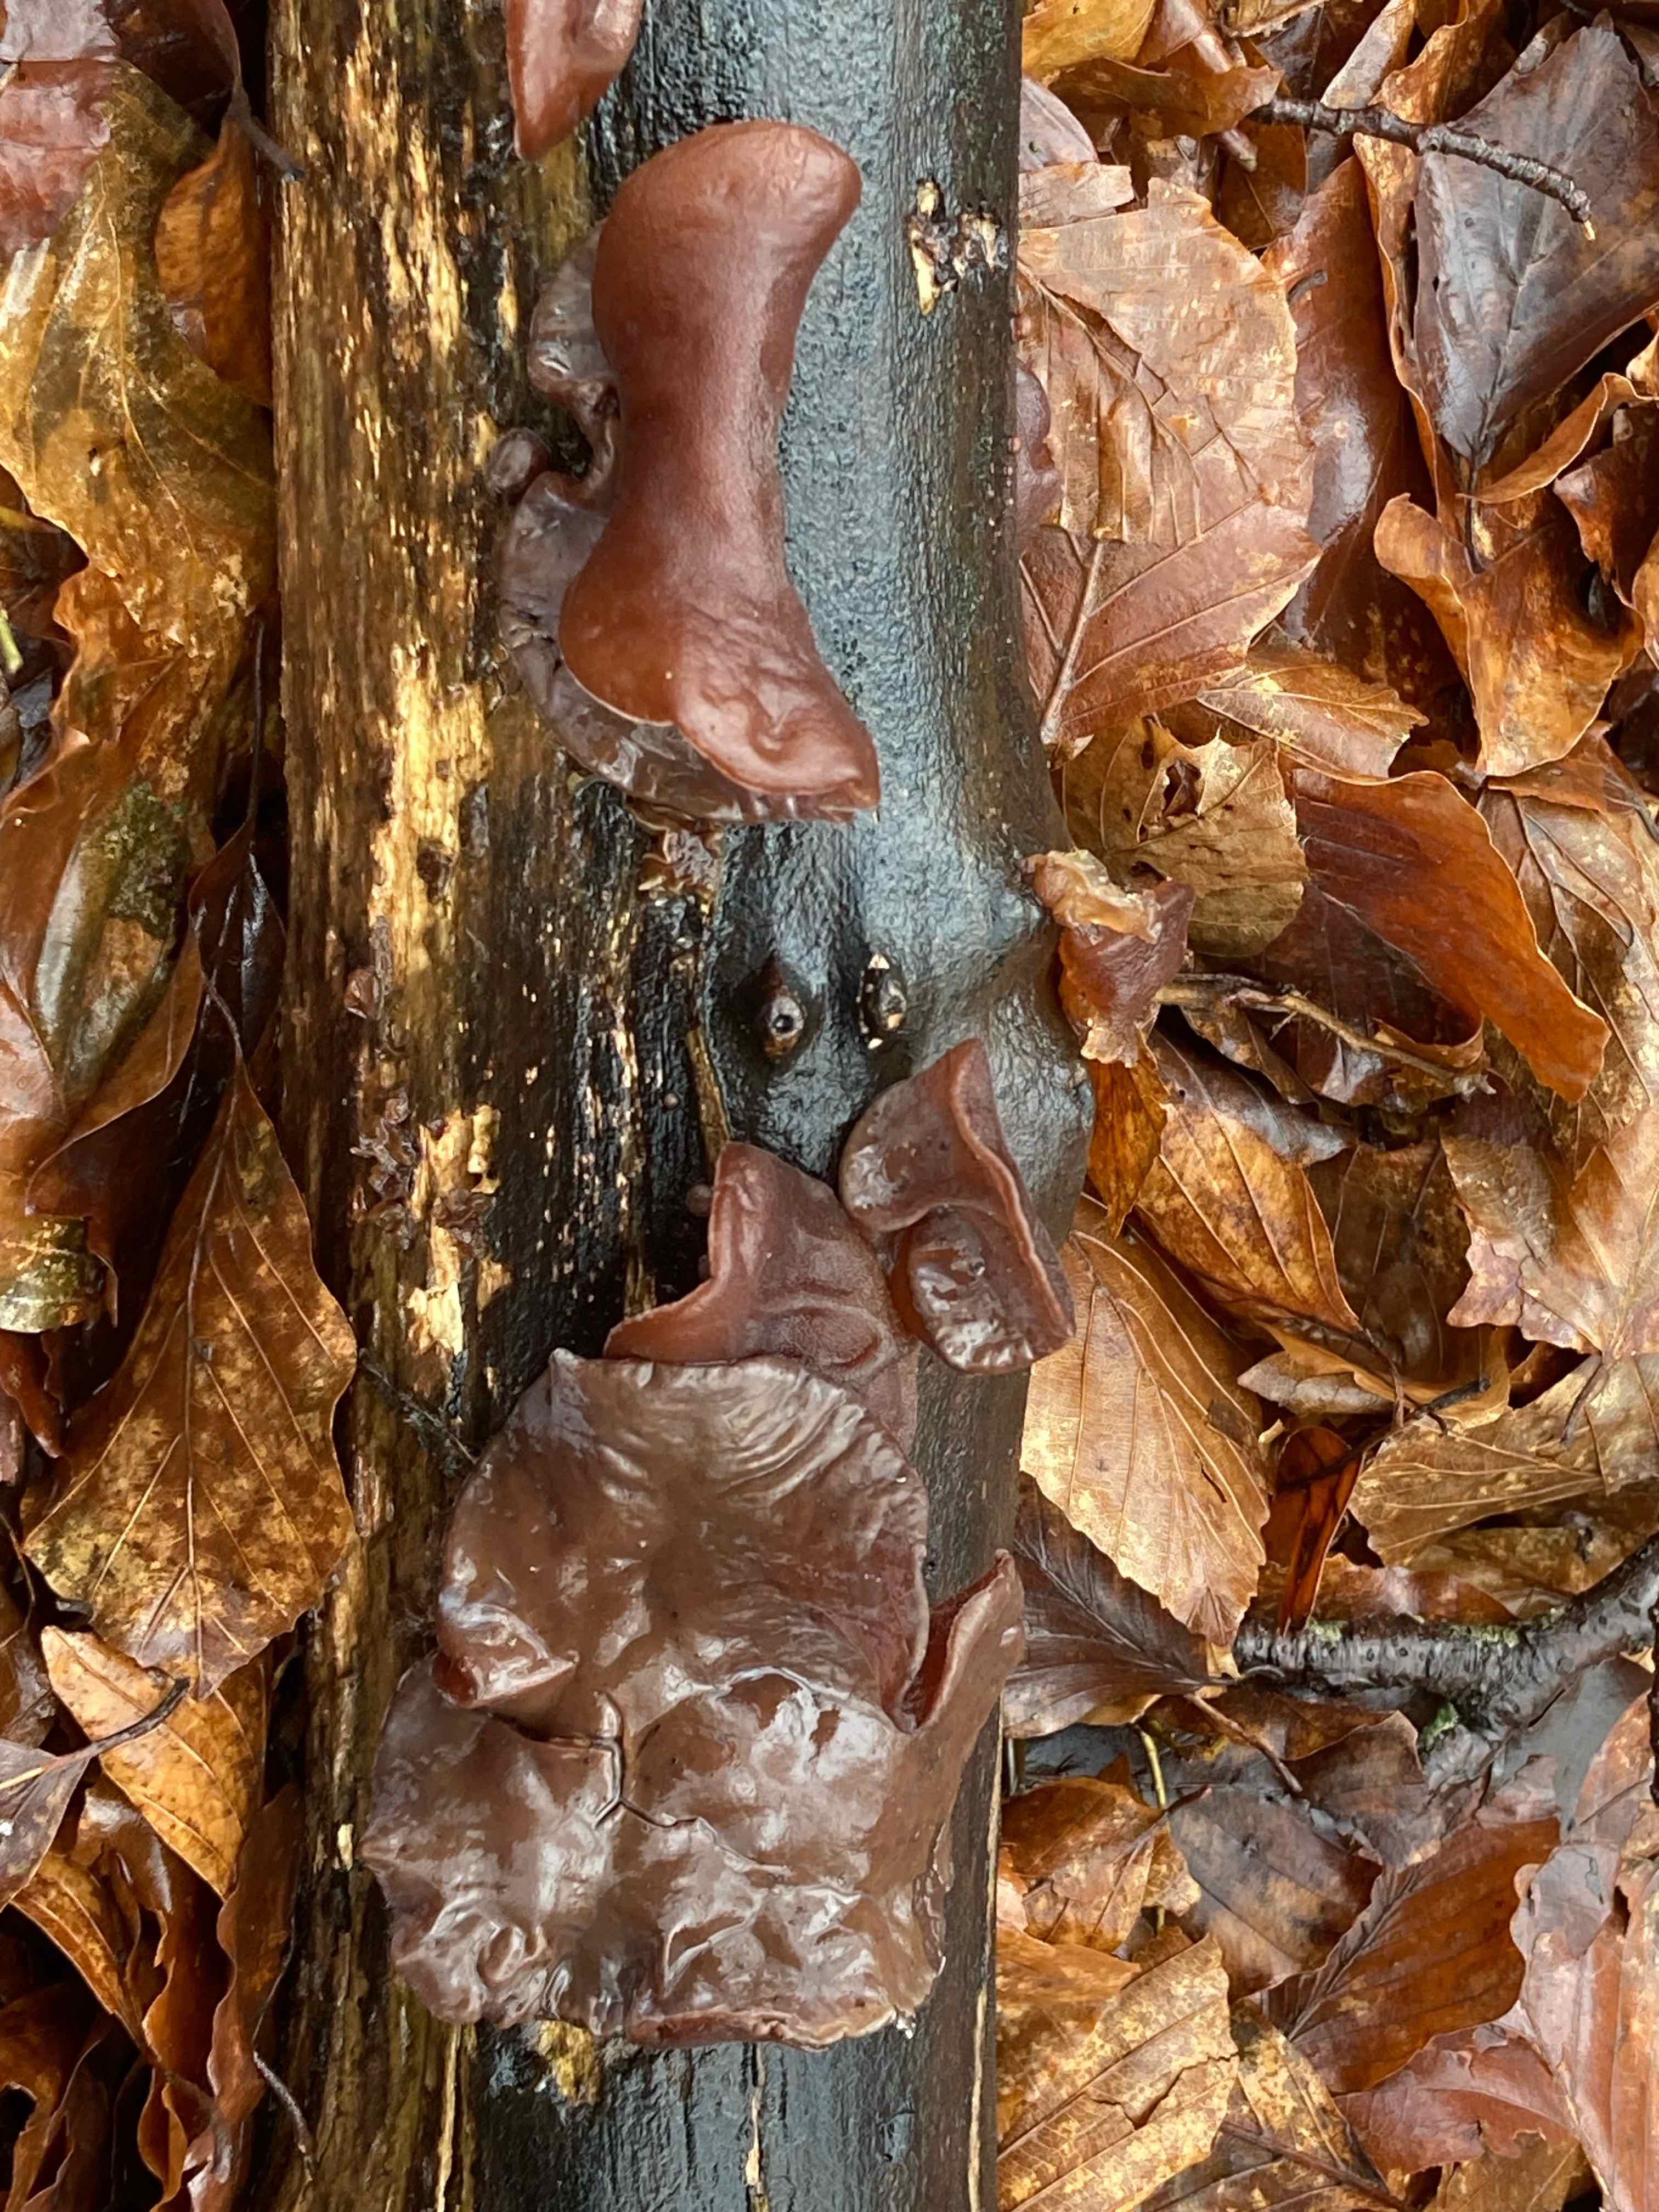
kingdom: Fungi
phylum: Basidiomycota
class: Agaricomycetes
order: Auriculariales
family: Auriculariaceae
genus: Auricularia
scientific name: Auricularia auricula-judae
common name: almindelig judasøre
